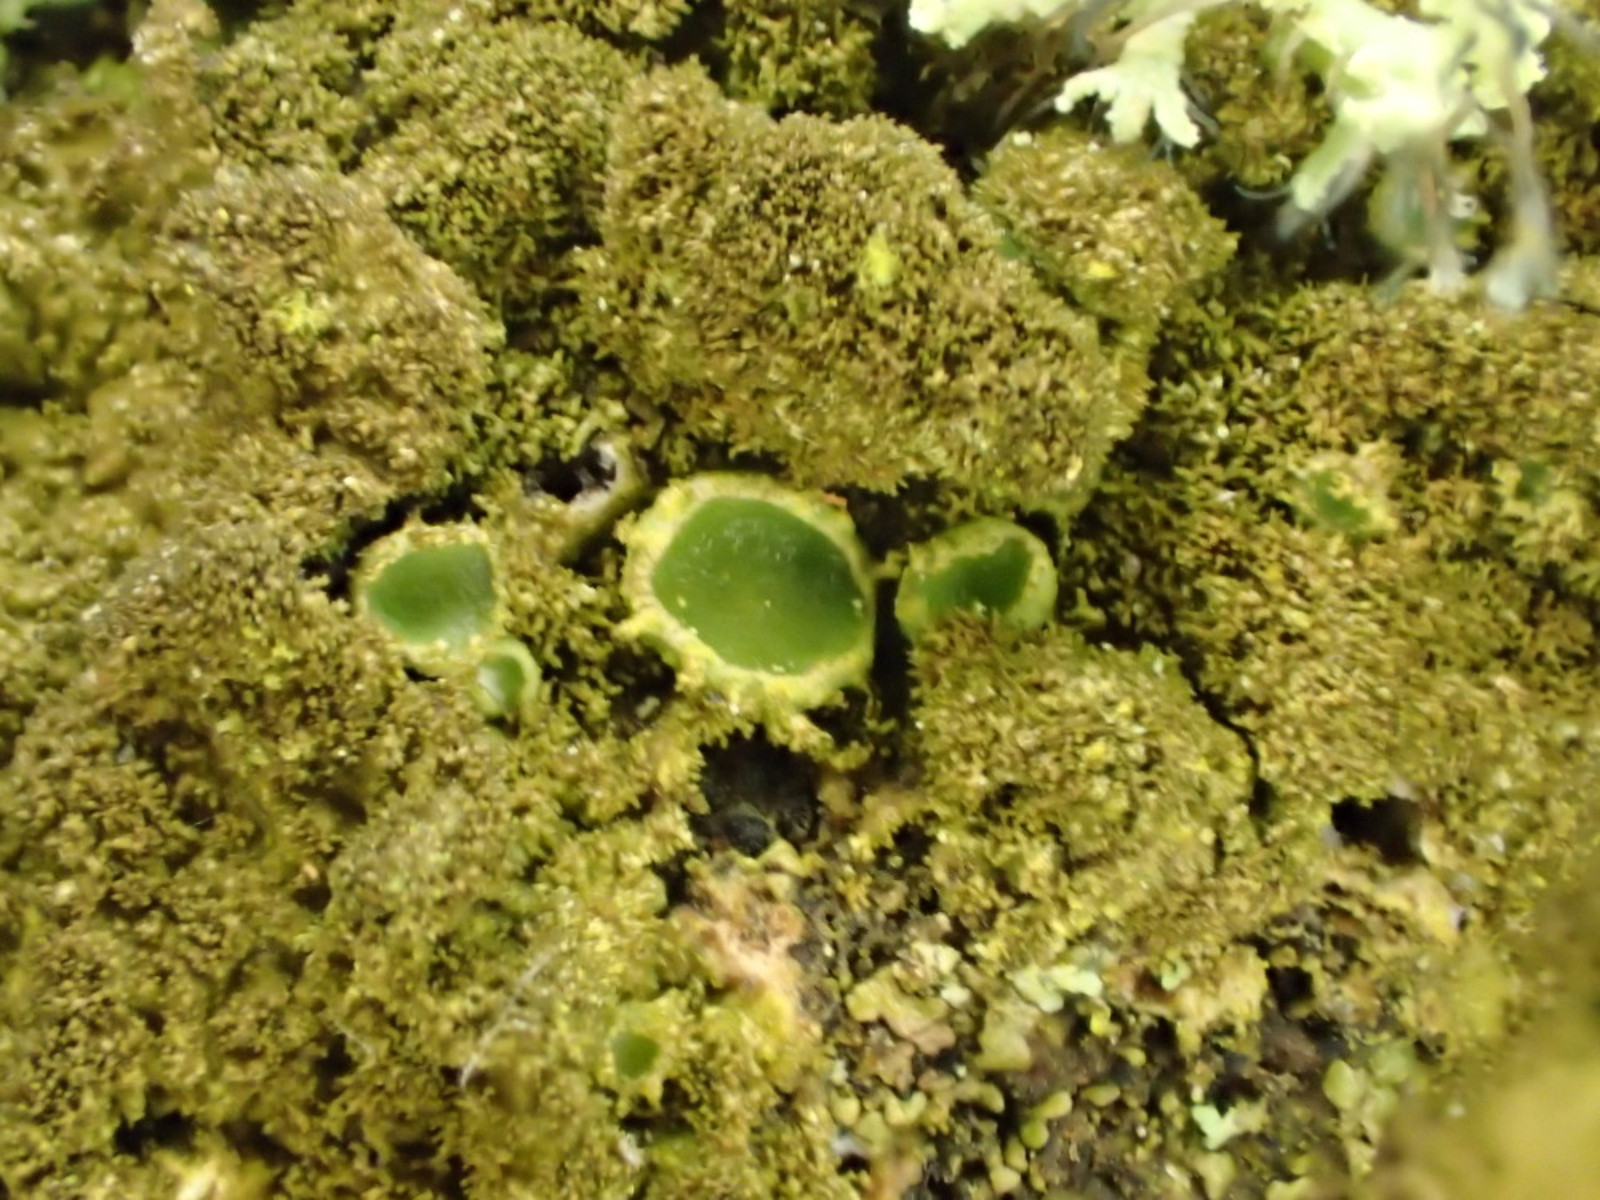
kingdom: Fungi
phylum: Ascomycota
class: Lecanoromycetes
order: Lecanorales
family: Parmeliaceae
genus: Melanelixia
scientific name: Melanelixia subaurifera
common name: guldpudret skållav
